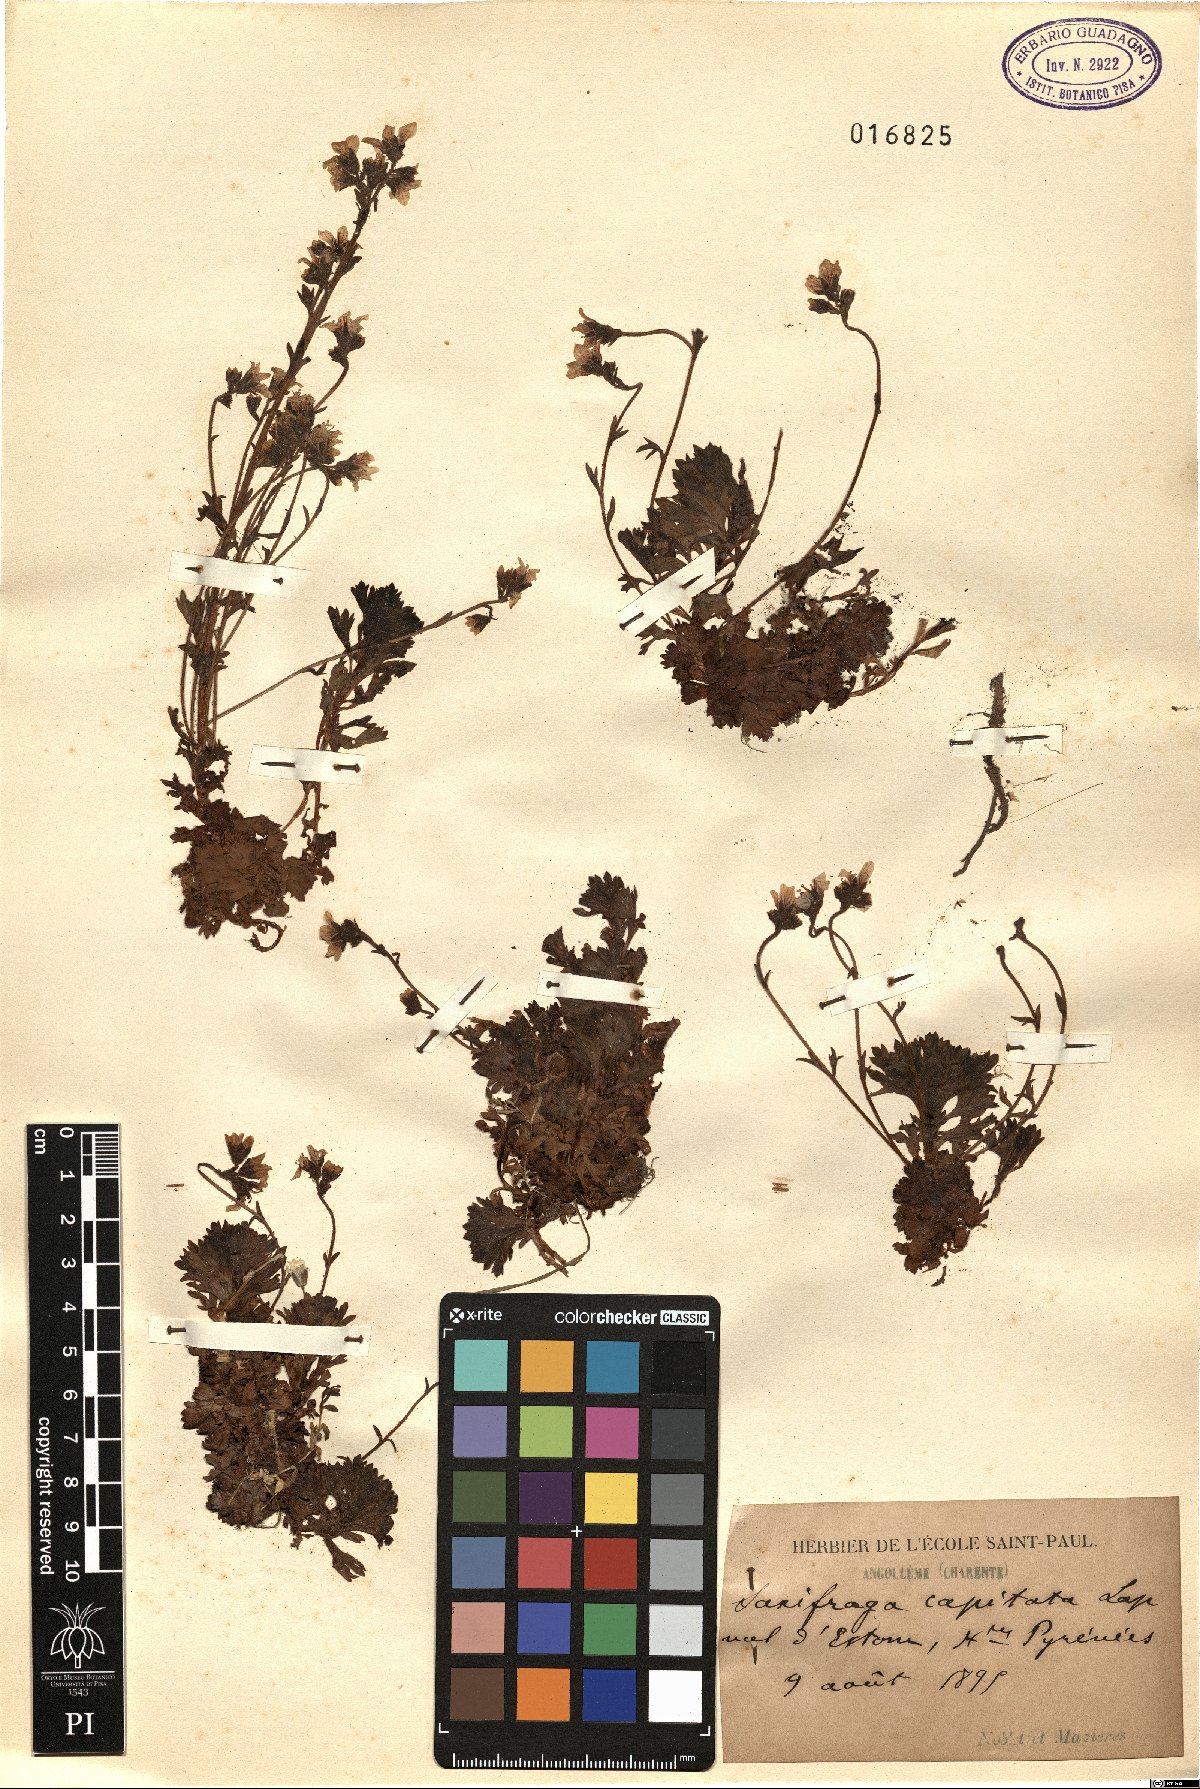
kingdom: Plantae
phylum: Tracheophyta
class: Magnoliopsida
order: Saxifragales
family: Saxifragaceae
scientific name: Saxifragaceae
